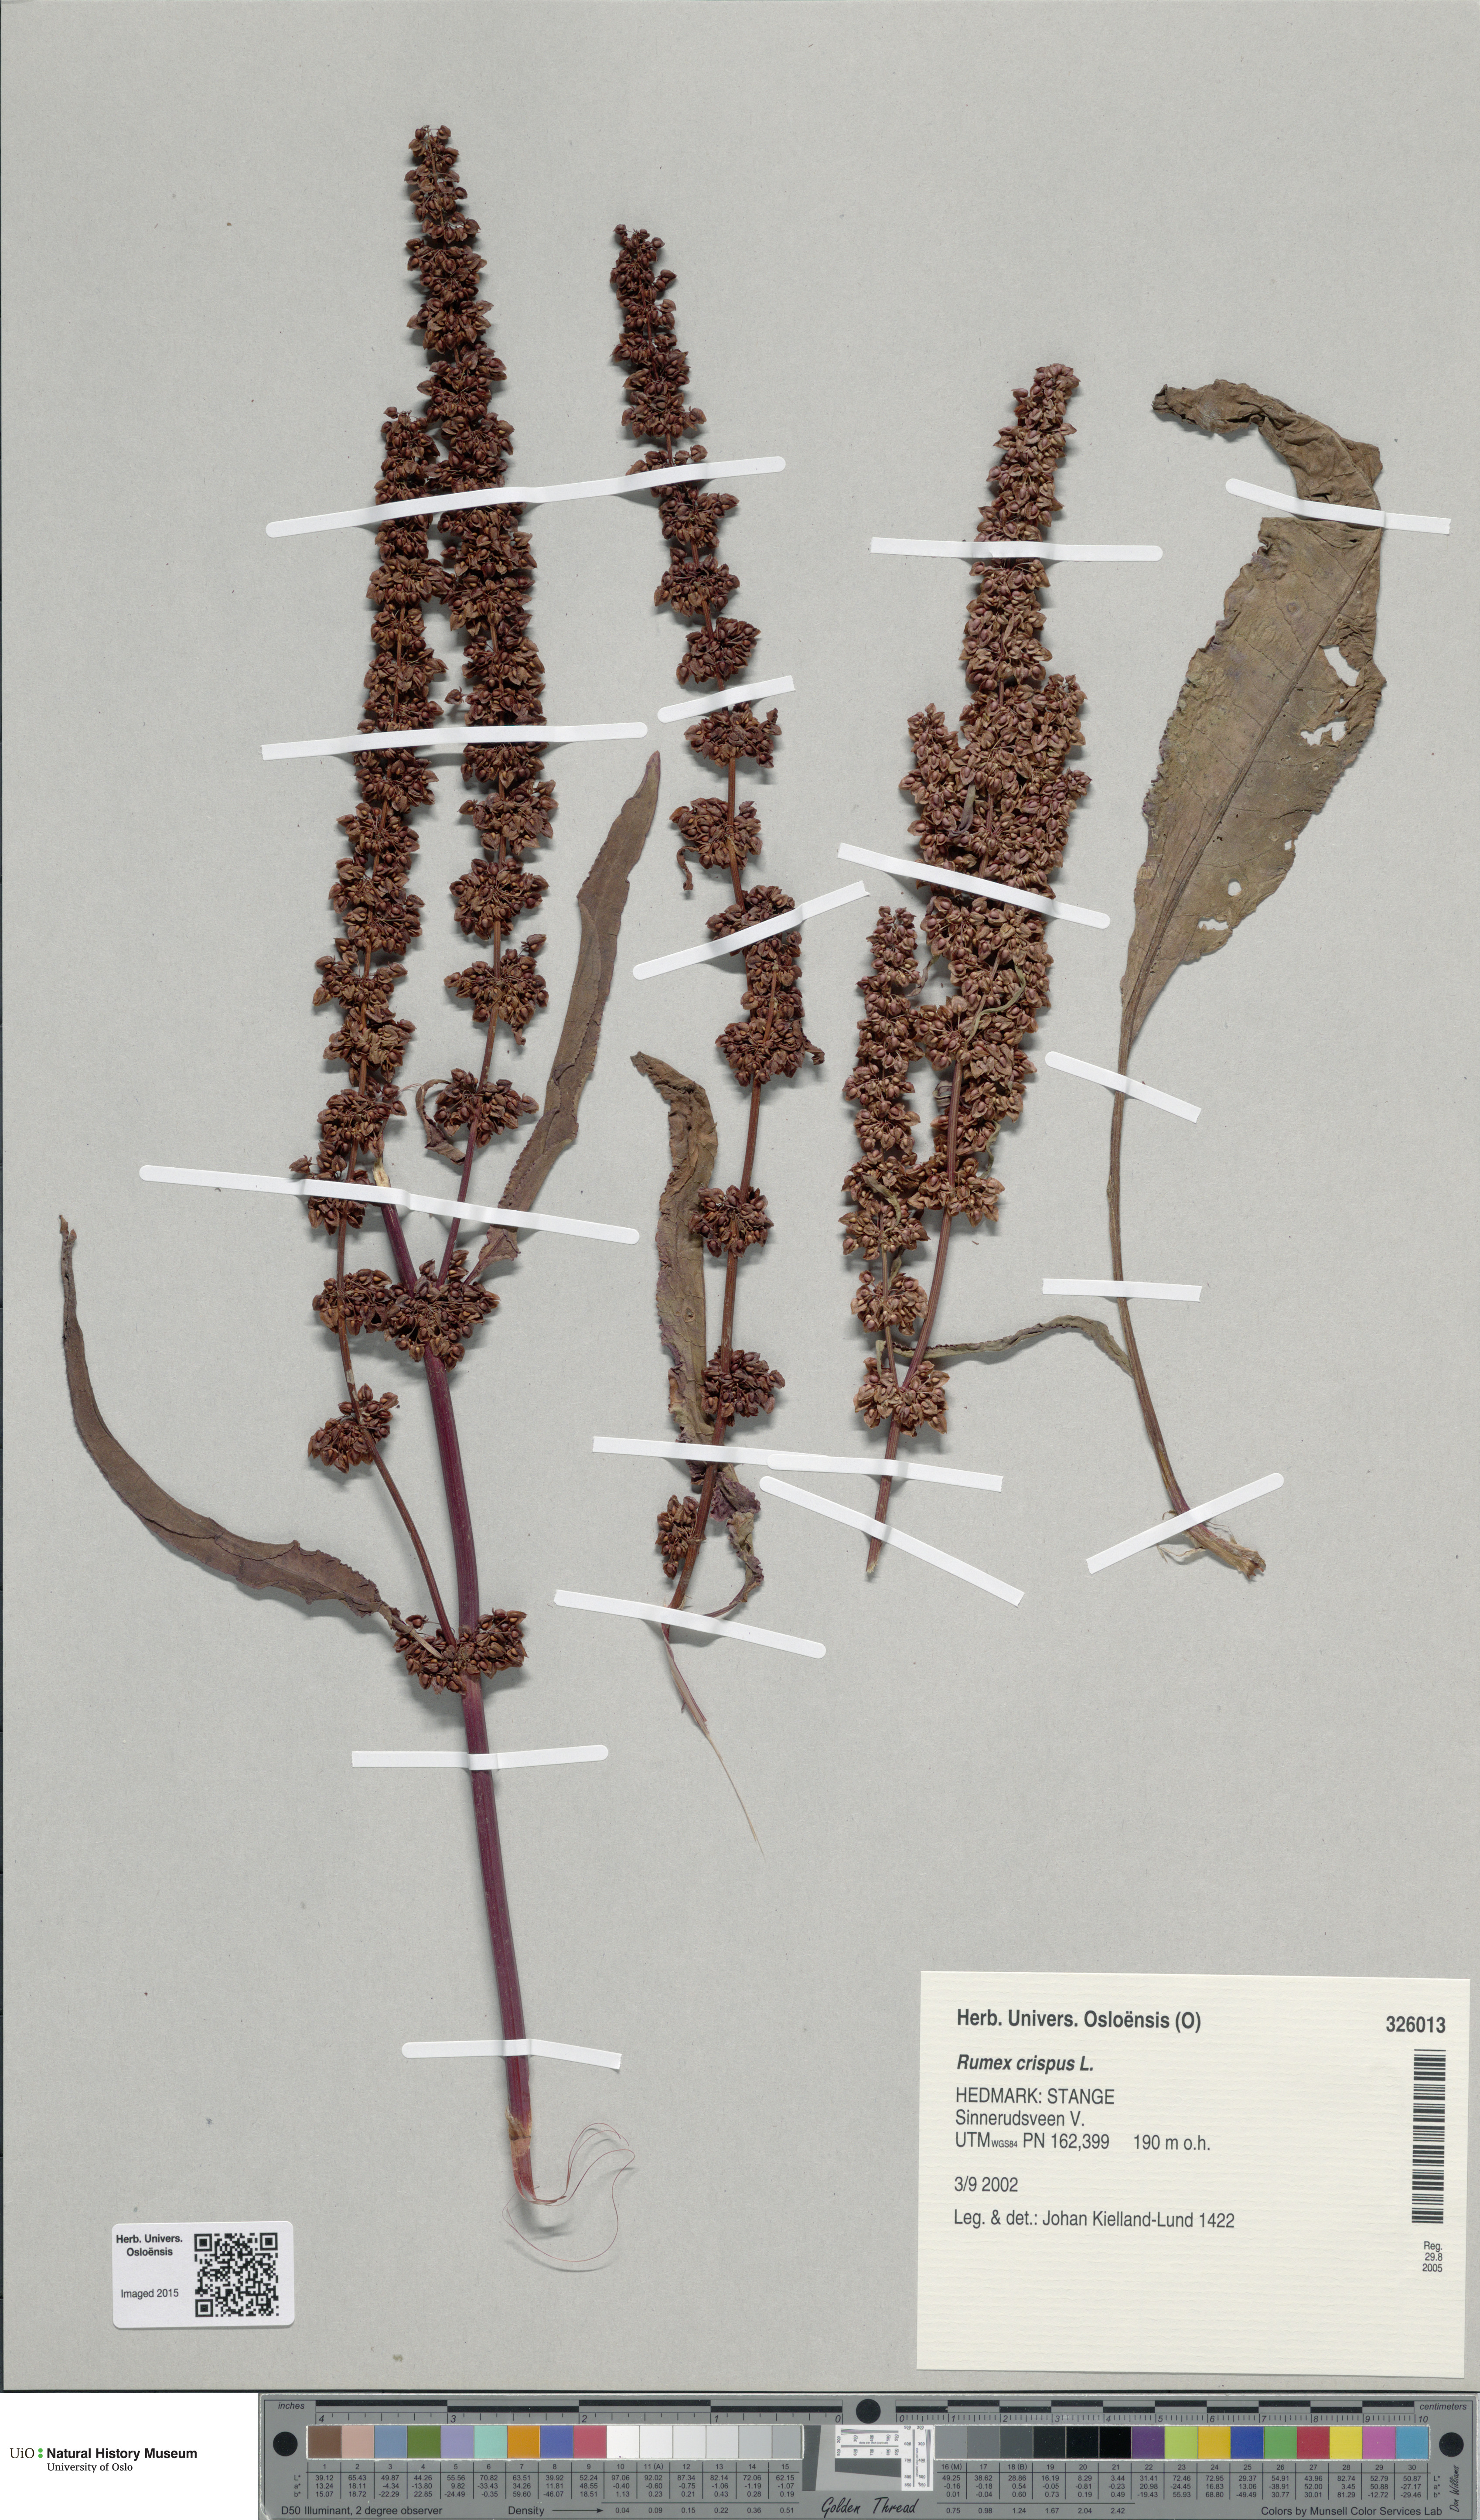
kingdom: Plantae
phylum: Tracheophyta
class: Magnoliopsida
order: Caryophyllales
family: Polygonaceae
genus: Rumex
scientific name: Rumex crispus
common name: Curled dock
